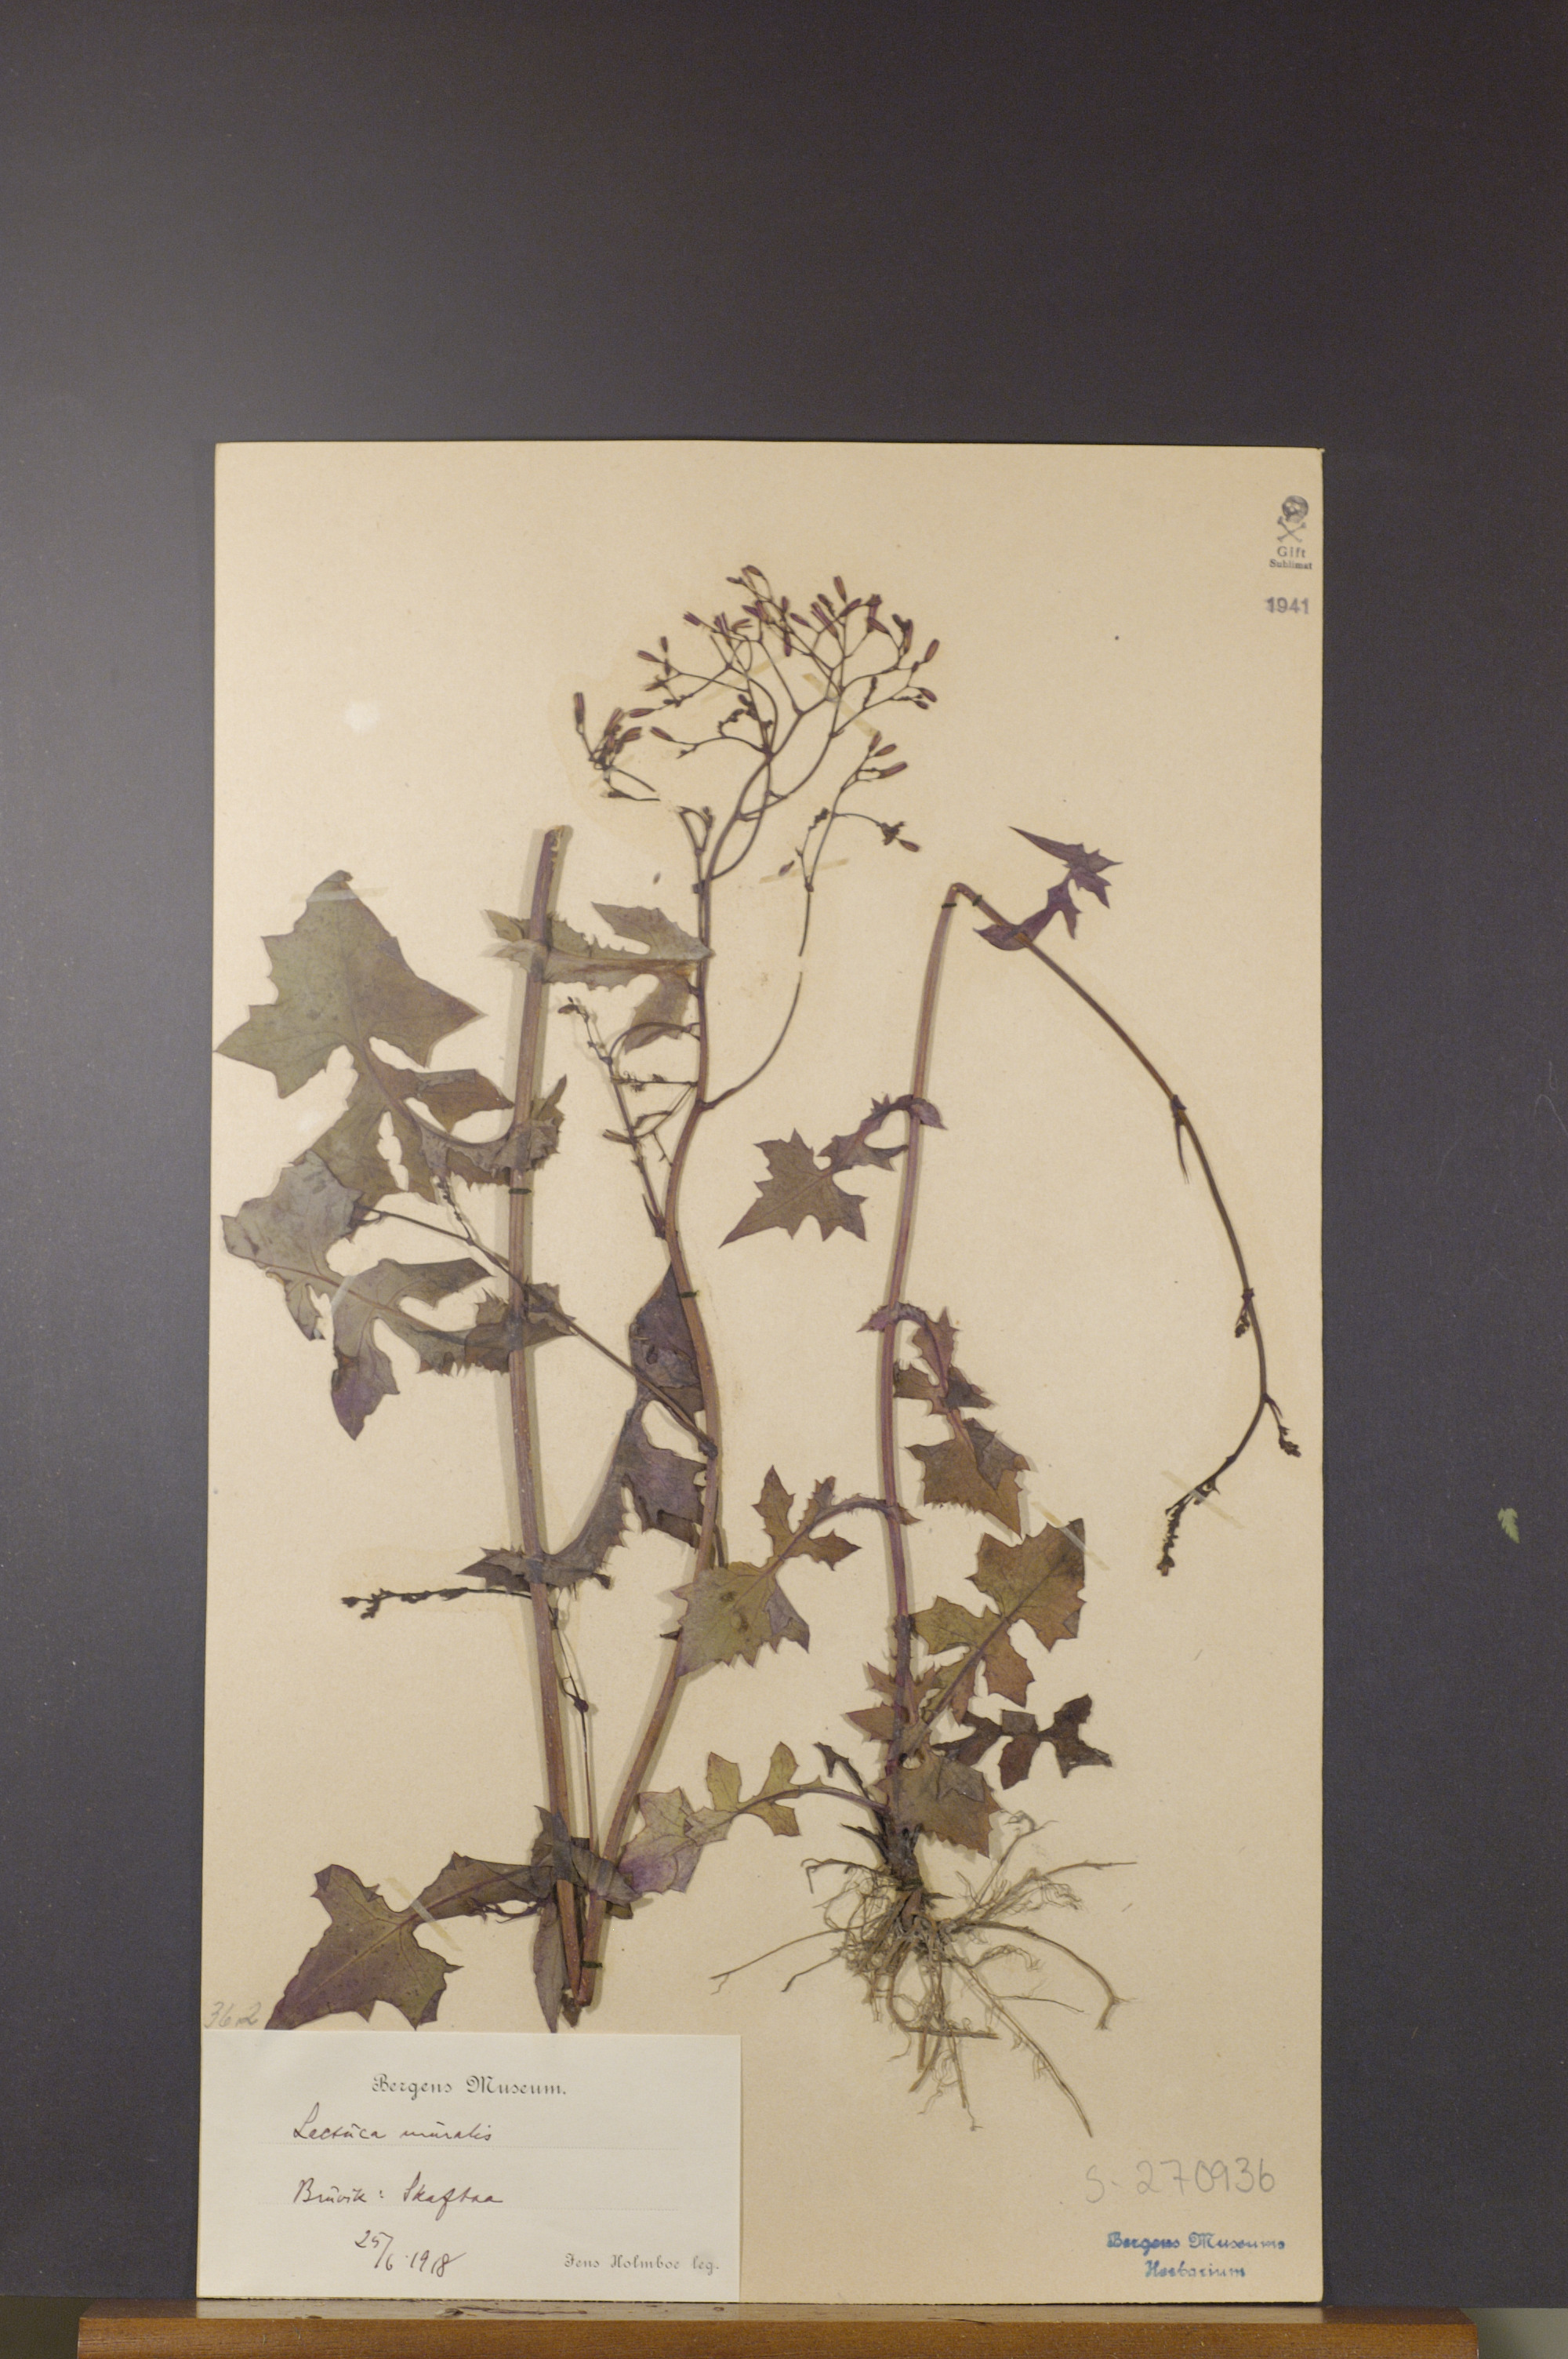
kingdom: Plantae
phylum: Tracheophyta
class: Magnoliopsida
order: Asterales
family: Asteraceae
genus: Mycelis
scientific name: Mycelis muralis
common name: Wall lettuce
